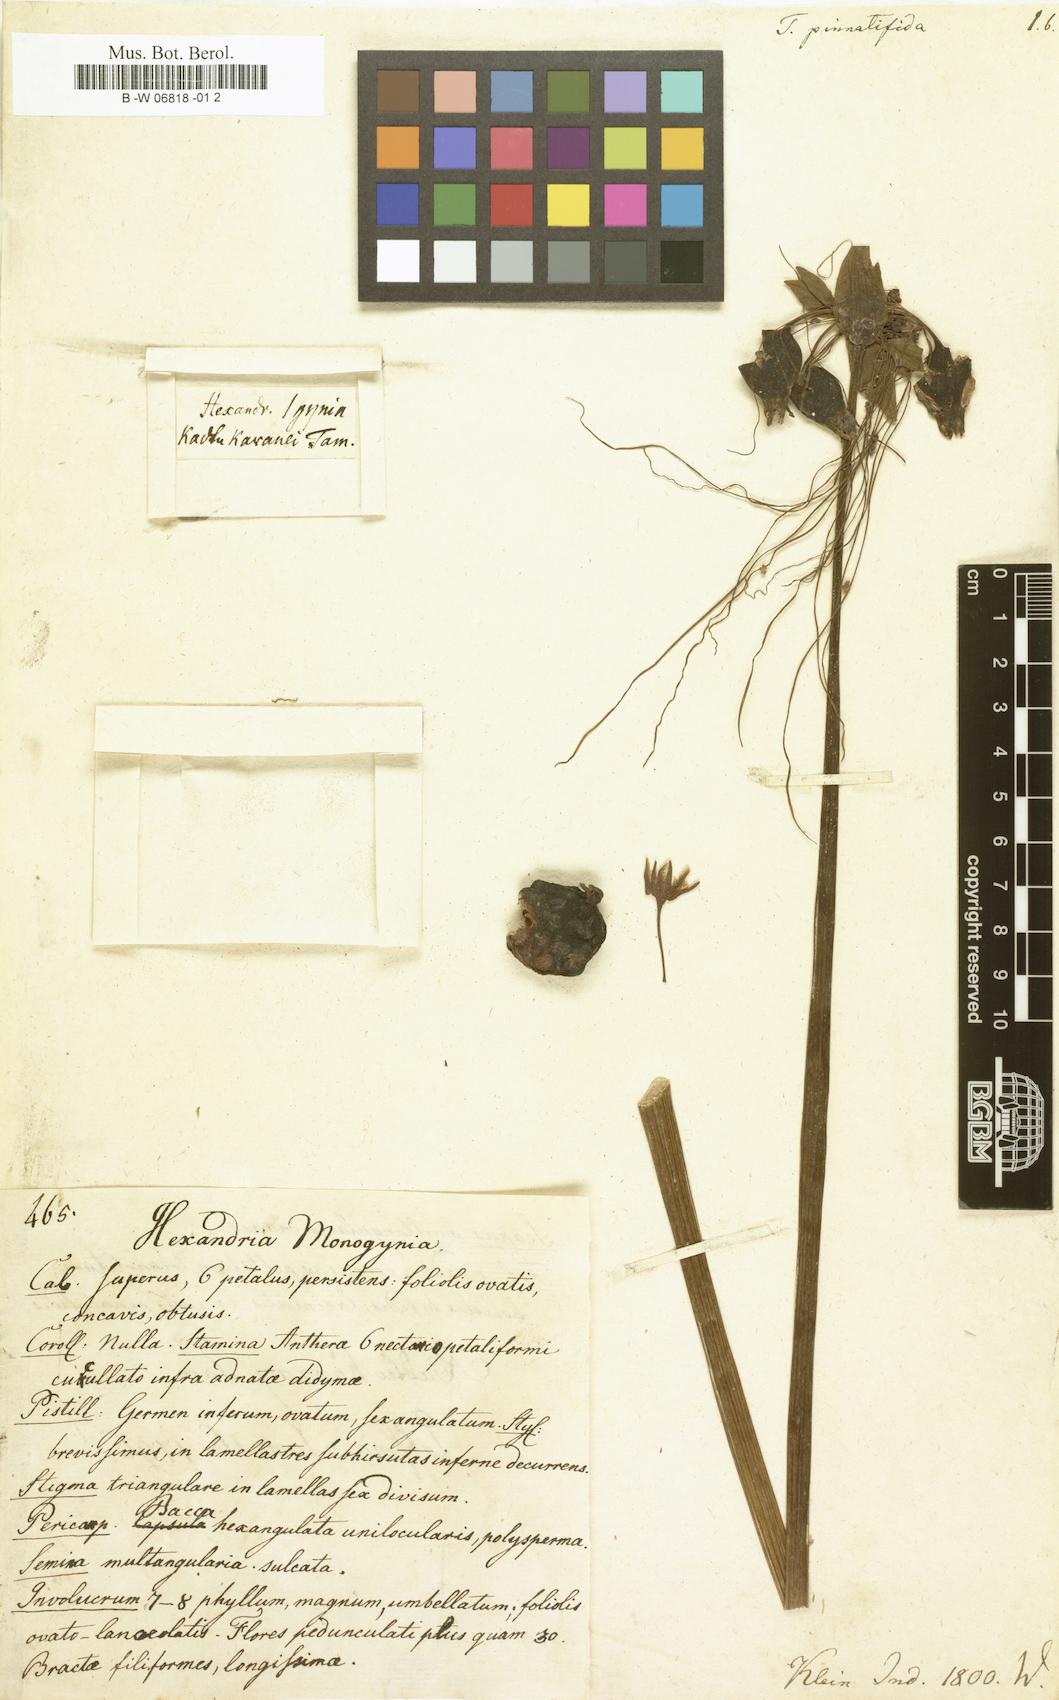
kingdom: Plantae
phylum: Tracheophyta
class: Liliopsida
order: Dioscoreales
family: Dioscoreaceae
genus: Tacca
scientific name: Tacca leontopetaloides
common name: Arrowroot
